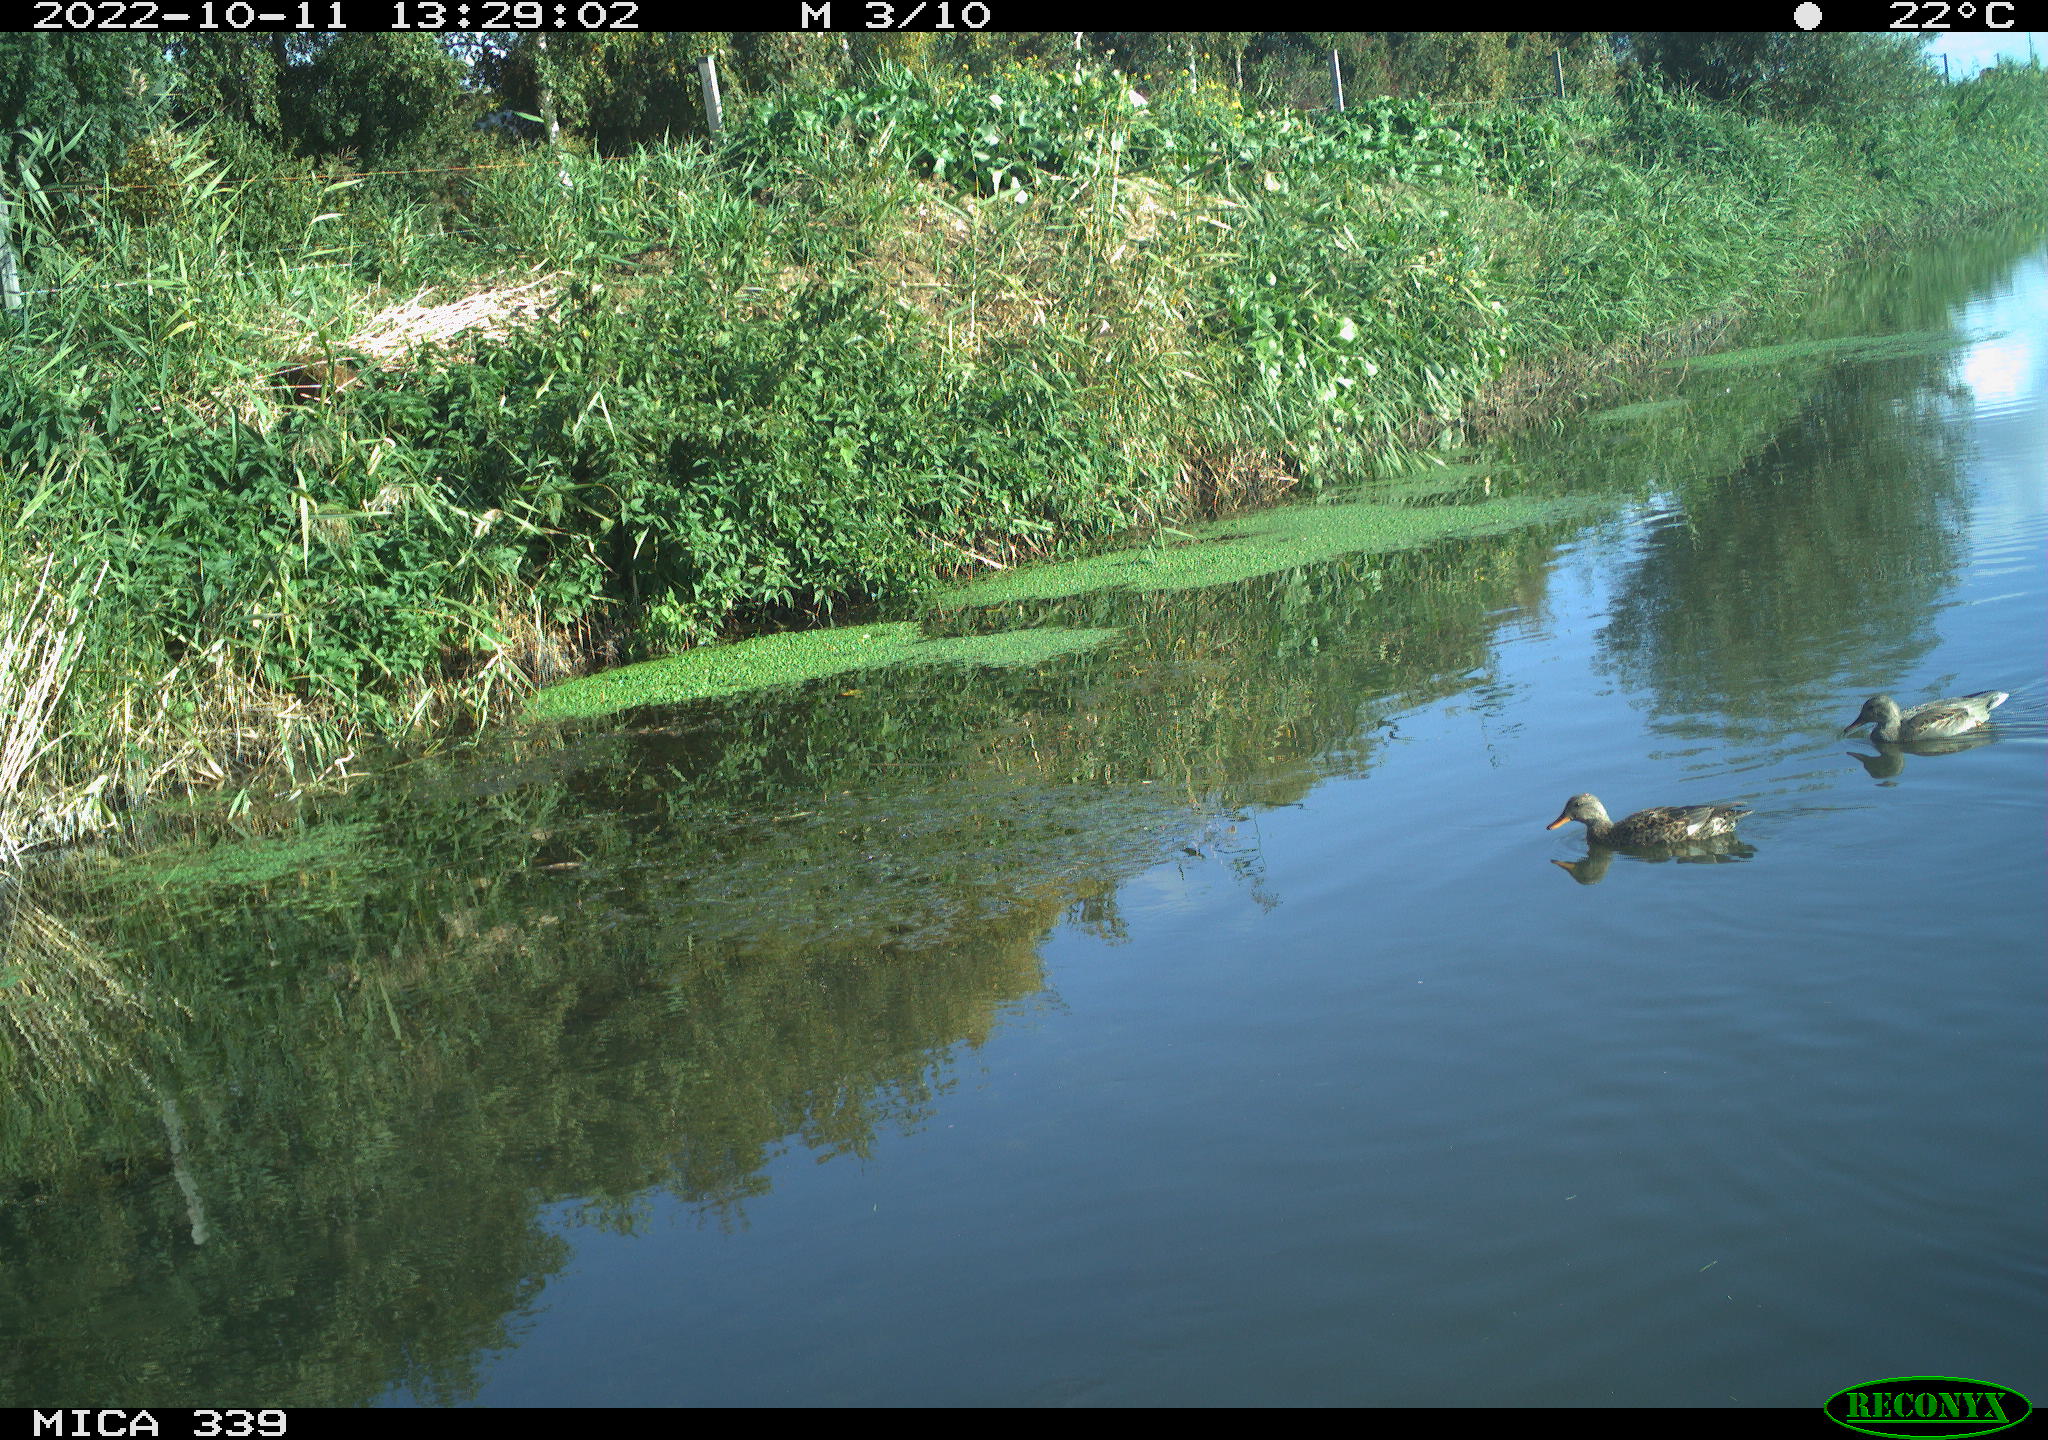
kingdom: Animalia
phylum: Chordata
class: Aves
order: Anseriformes
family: Anatidae
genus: Anas
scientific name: Anas platyrhynchos
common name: Mallard
